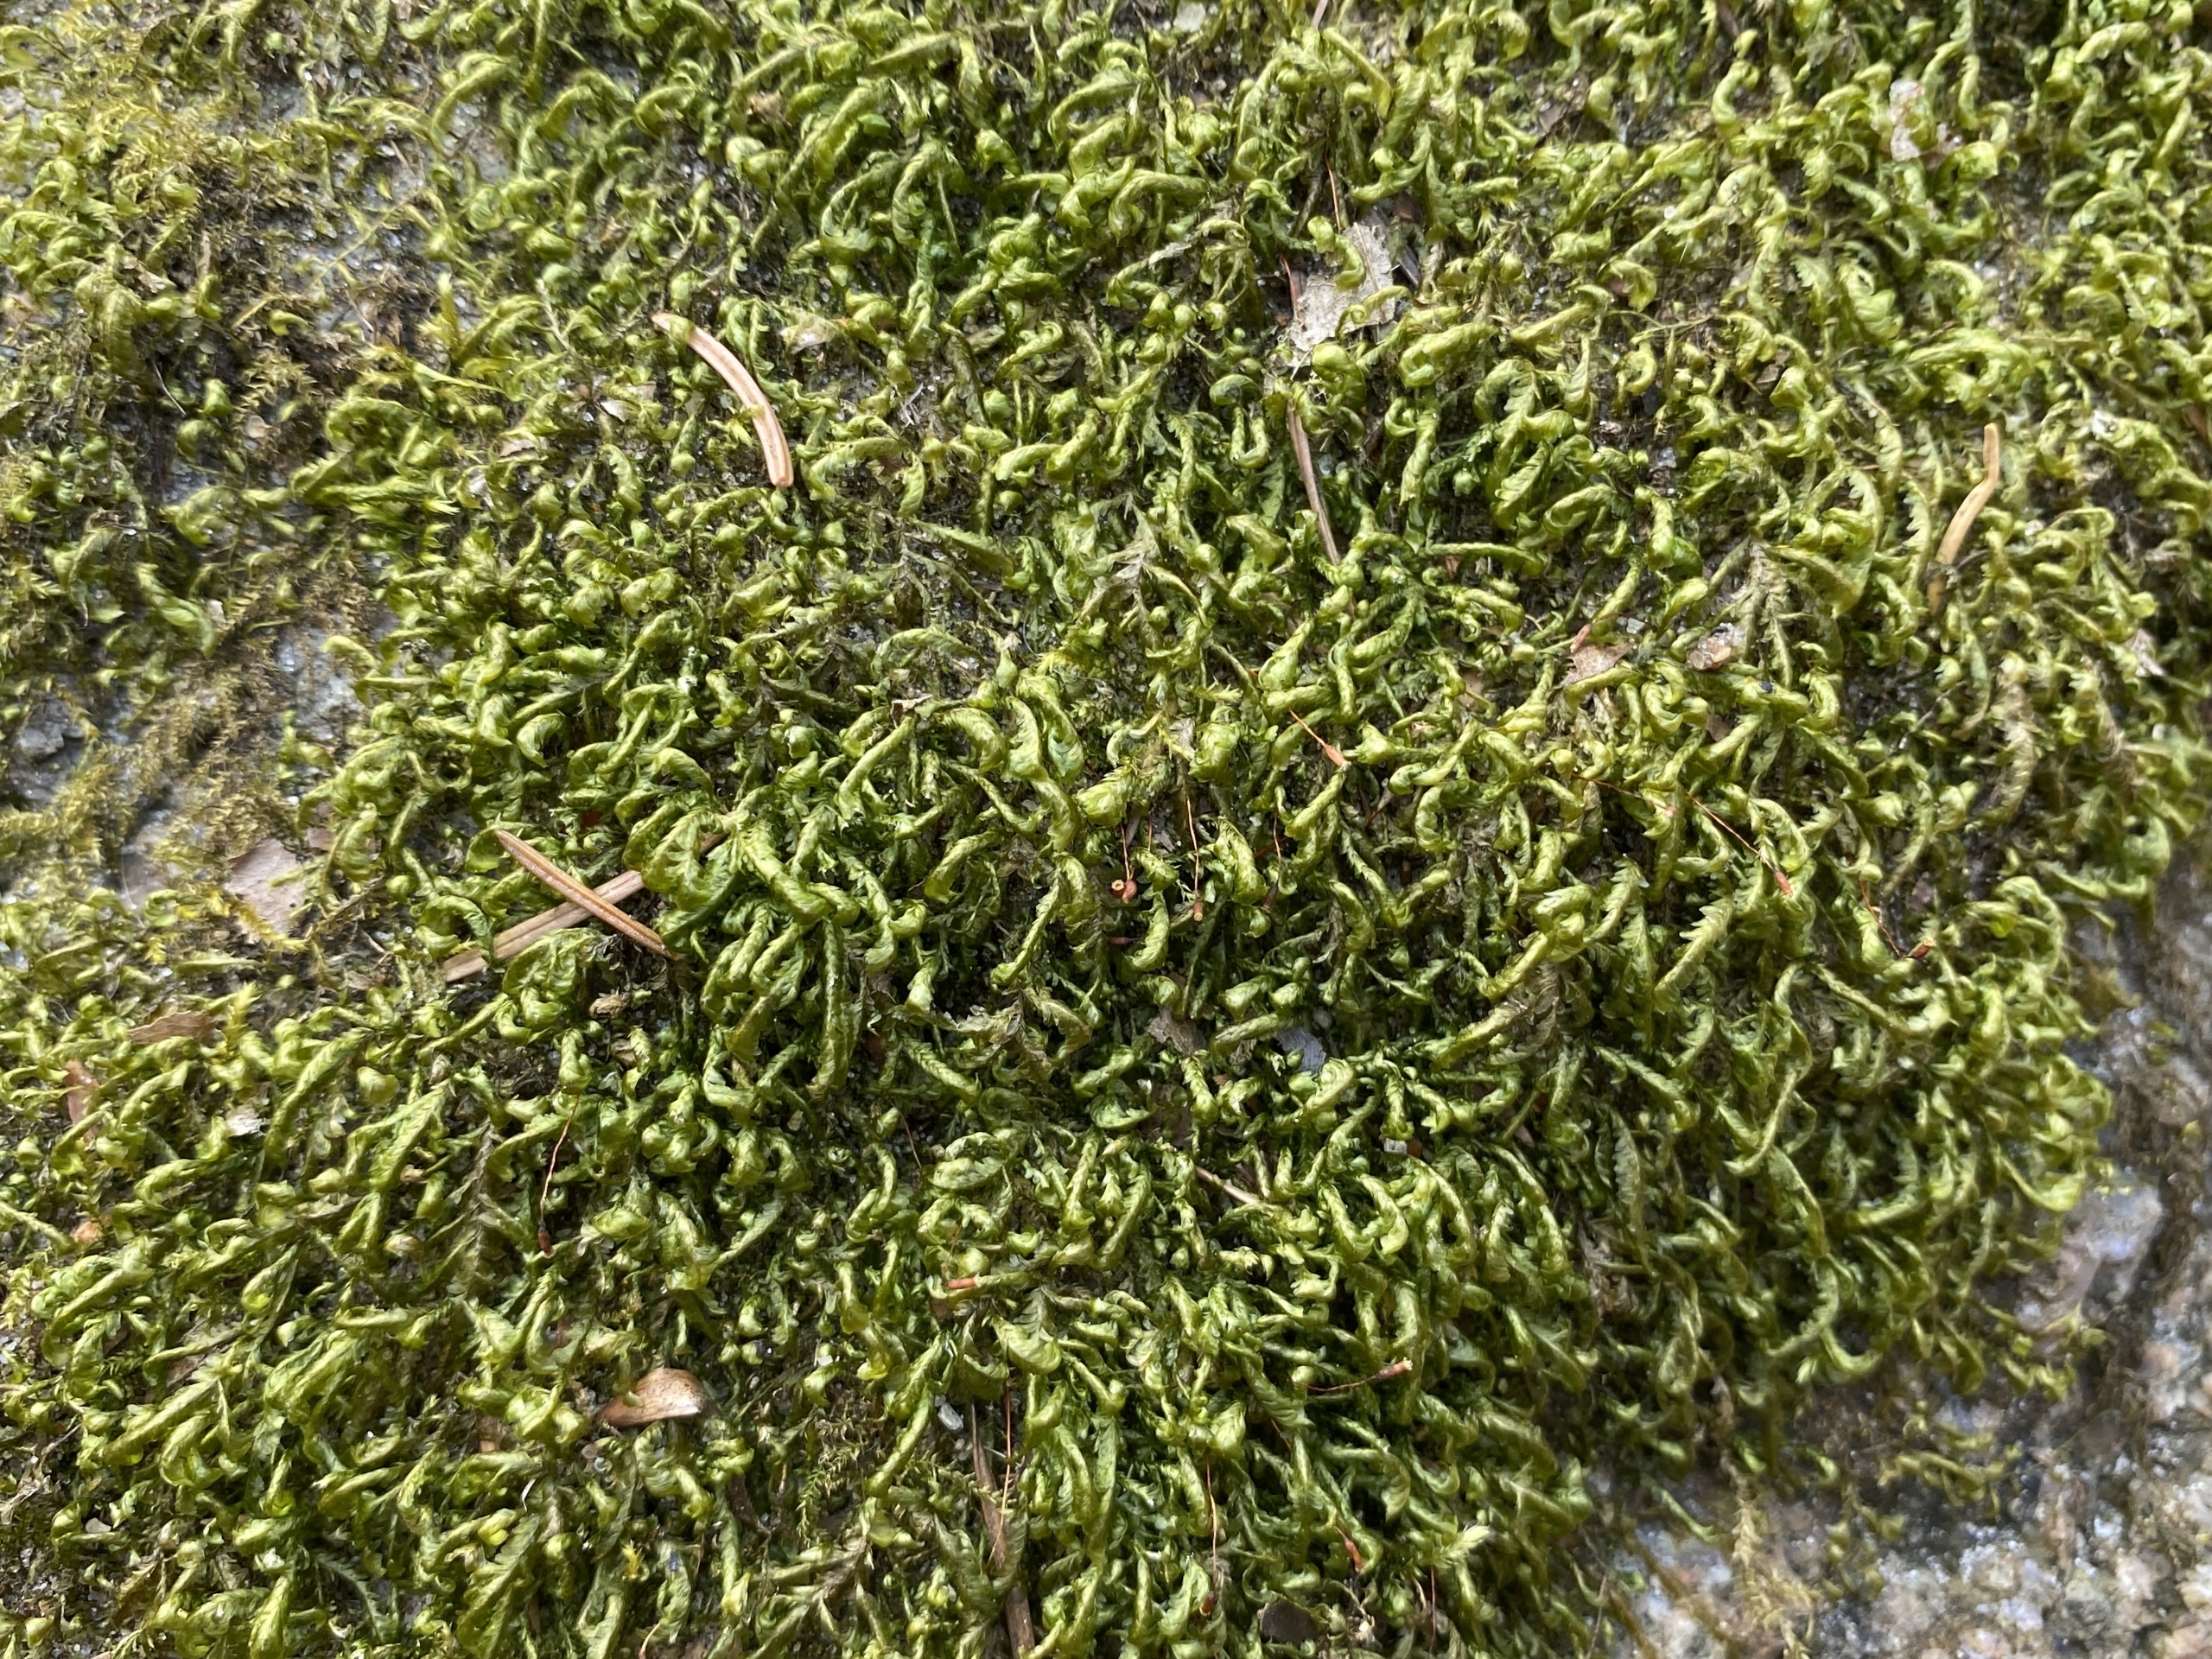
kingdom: Plantae
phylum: Bryophyta
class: Bryopsida
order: Hypnales
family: Neckeraceae
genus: Homalia
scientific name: Homalia trichomanoides
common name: Skov-tungemos
